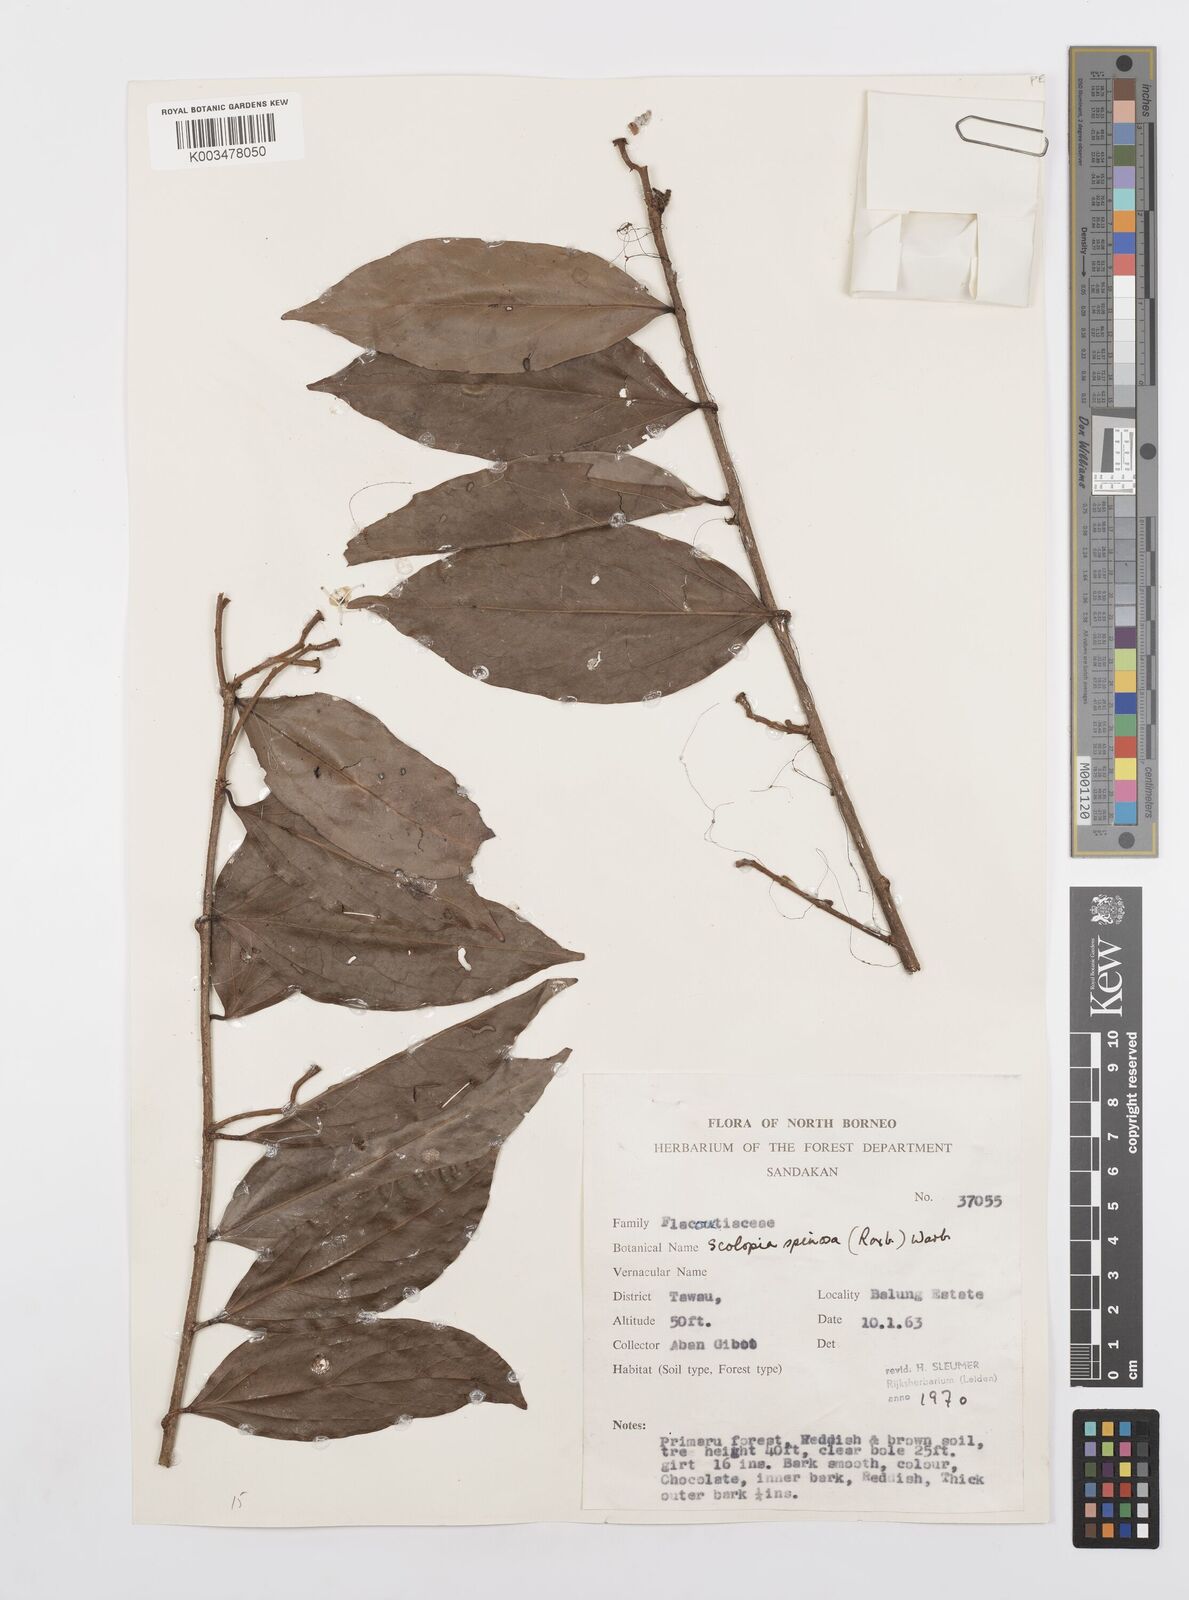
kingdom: Plantae
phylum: Tracheophyta
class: Magnoliopsida
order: Malpighiales
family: Salicaceae
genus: Scolopia
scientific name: Scolopia spinosa
